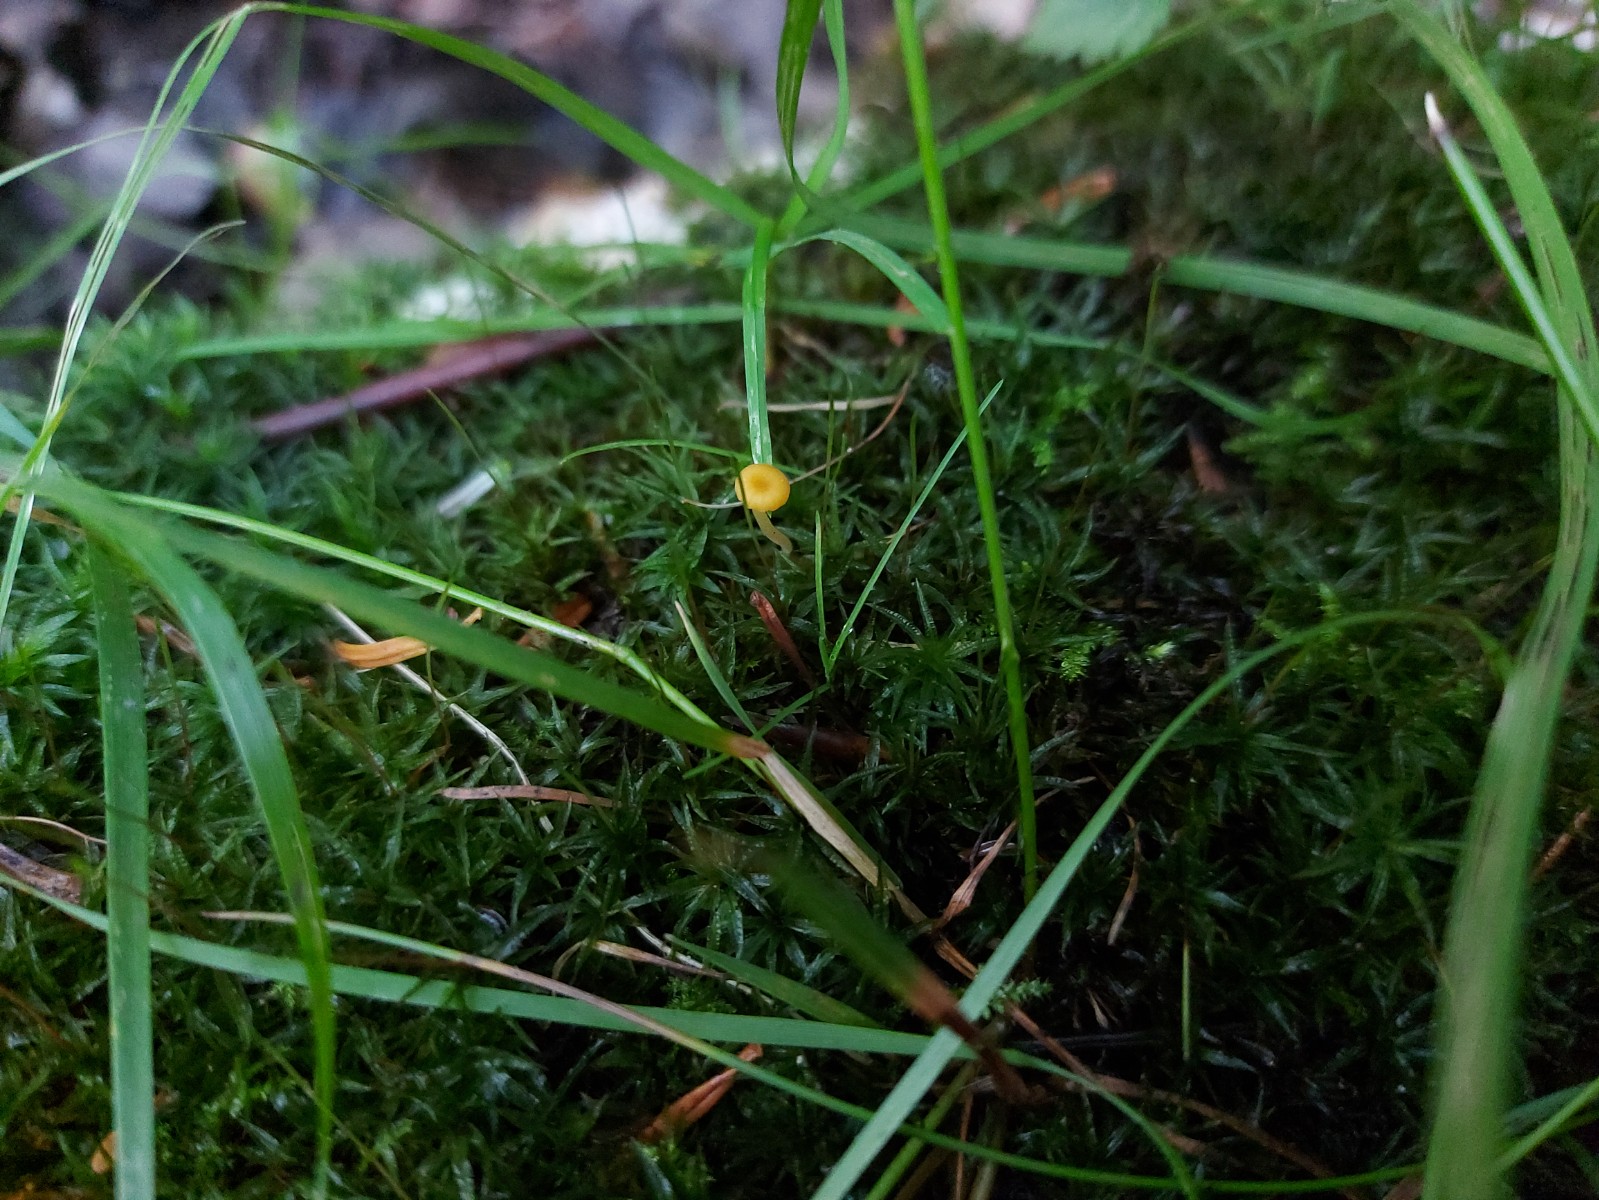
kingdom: Fungi
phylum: Basidiomycota
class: Agaricomycetes
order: Hymenochaetales
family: Rickenellaceae
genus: Rickenella
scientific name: Rickenella fibula
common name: orange mosnavlehat
